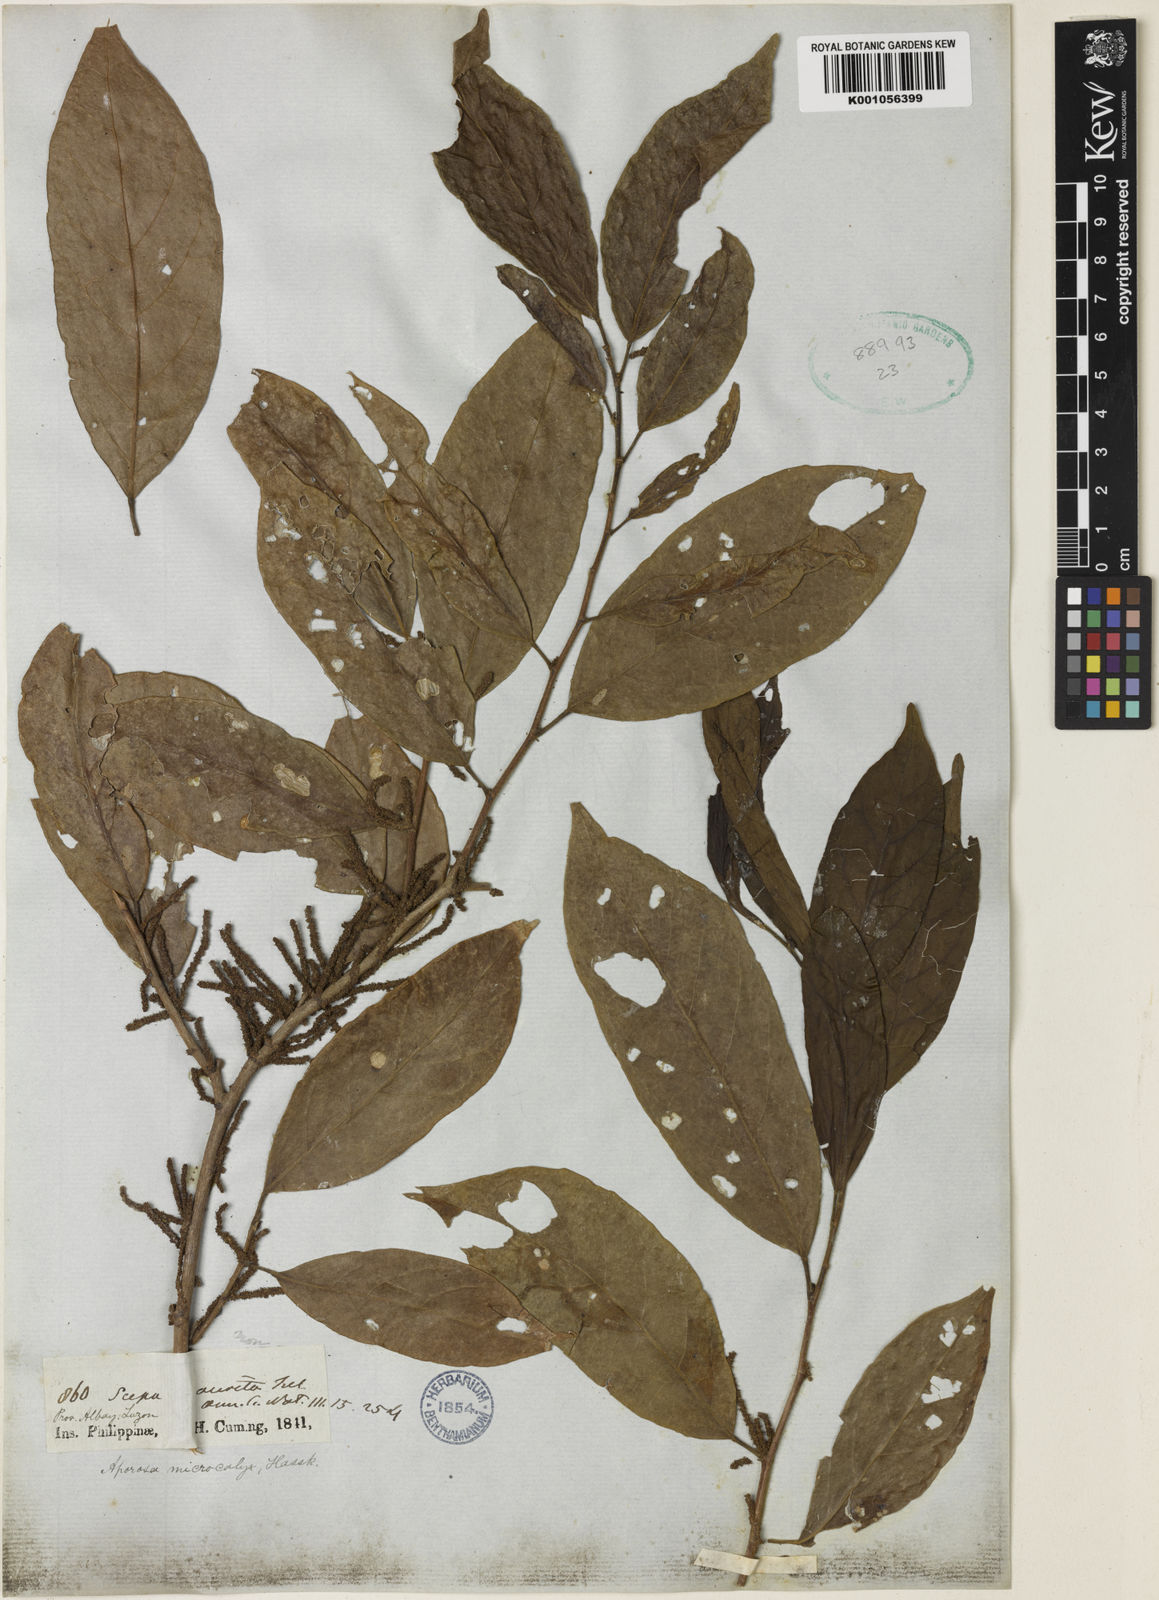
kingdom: Plantae
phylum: Tracheophyta
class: Magnoliopsida
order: Malpighiales
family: Phyllanthaceae
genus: Aporosa
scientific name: Aporosa octandra
